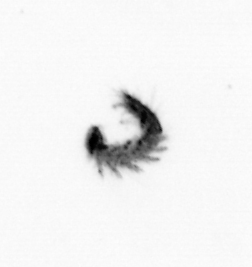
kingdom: Animalia
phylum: Annelida
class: Polychaeta
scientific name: Polychaeta
